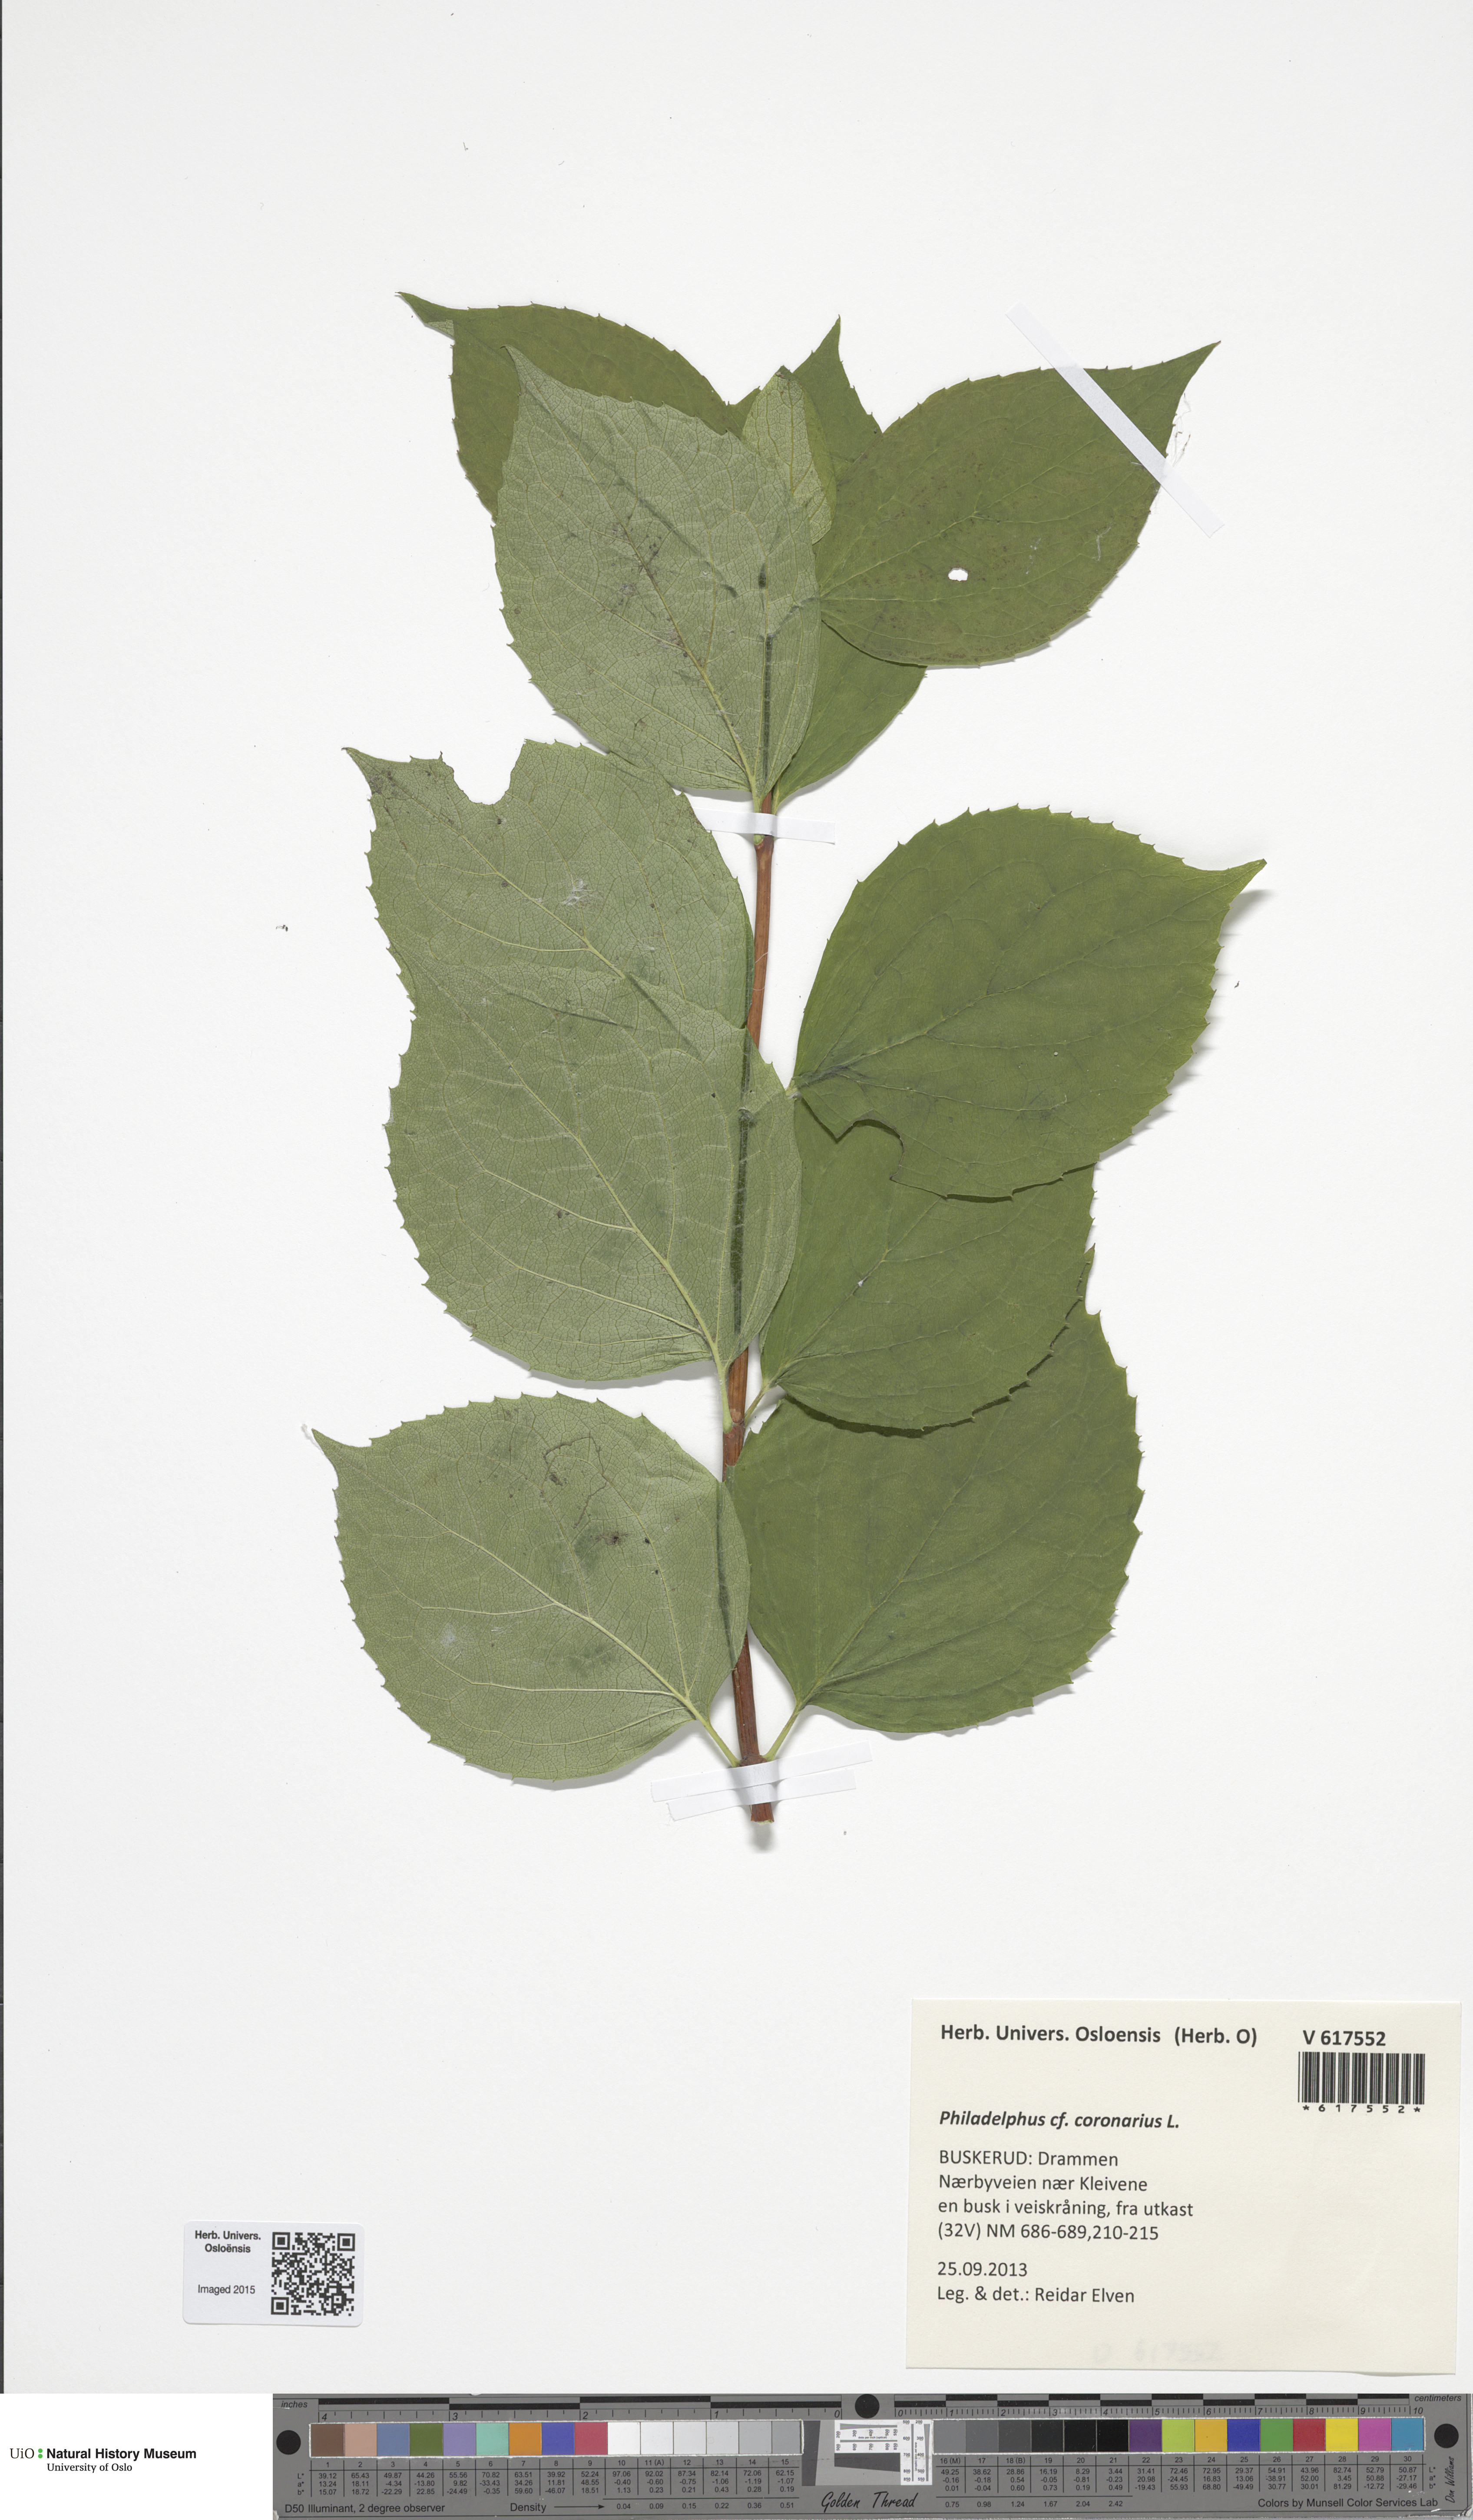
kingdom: Plantae
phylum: Tracheophyta
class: Magnoliopsida
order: Cornales
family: Hydrangeaceae
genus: Philadelphus
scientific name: Philadelphus coronarius
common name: Mock orange
